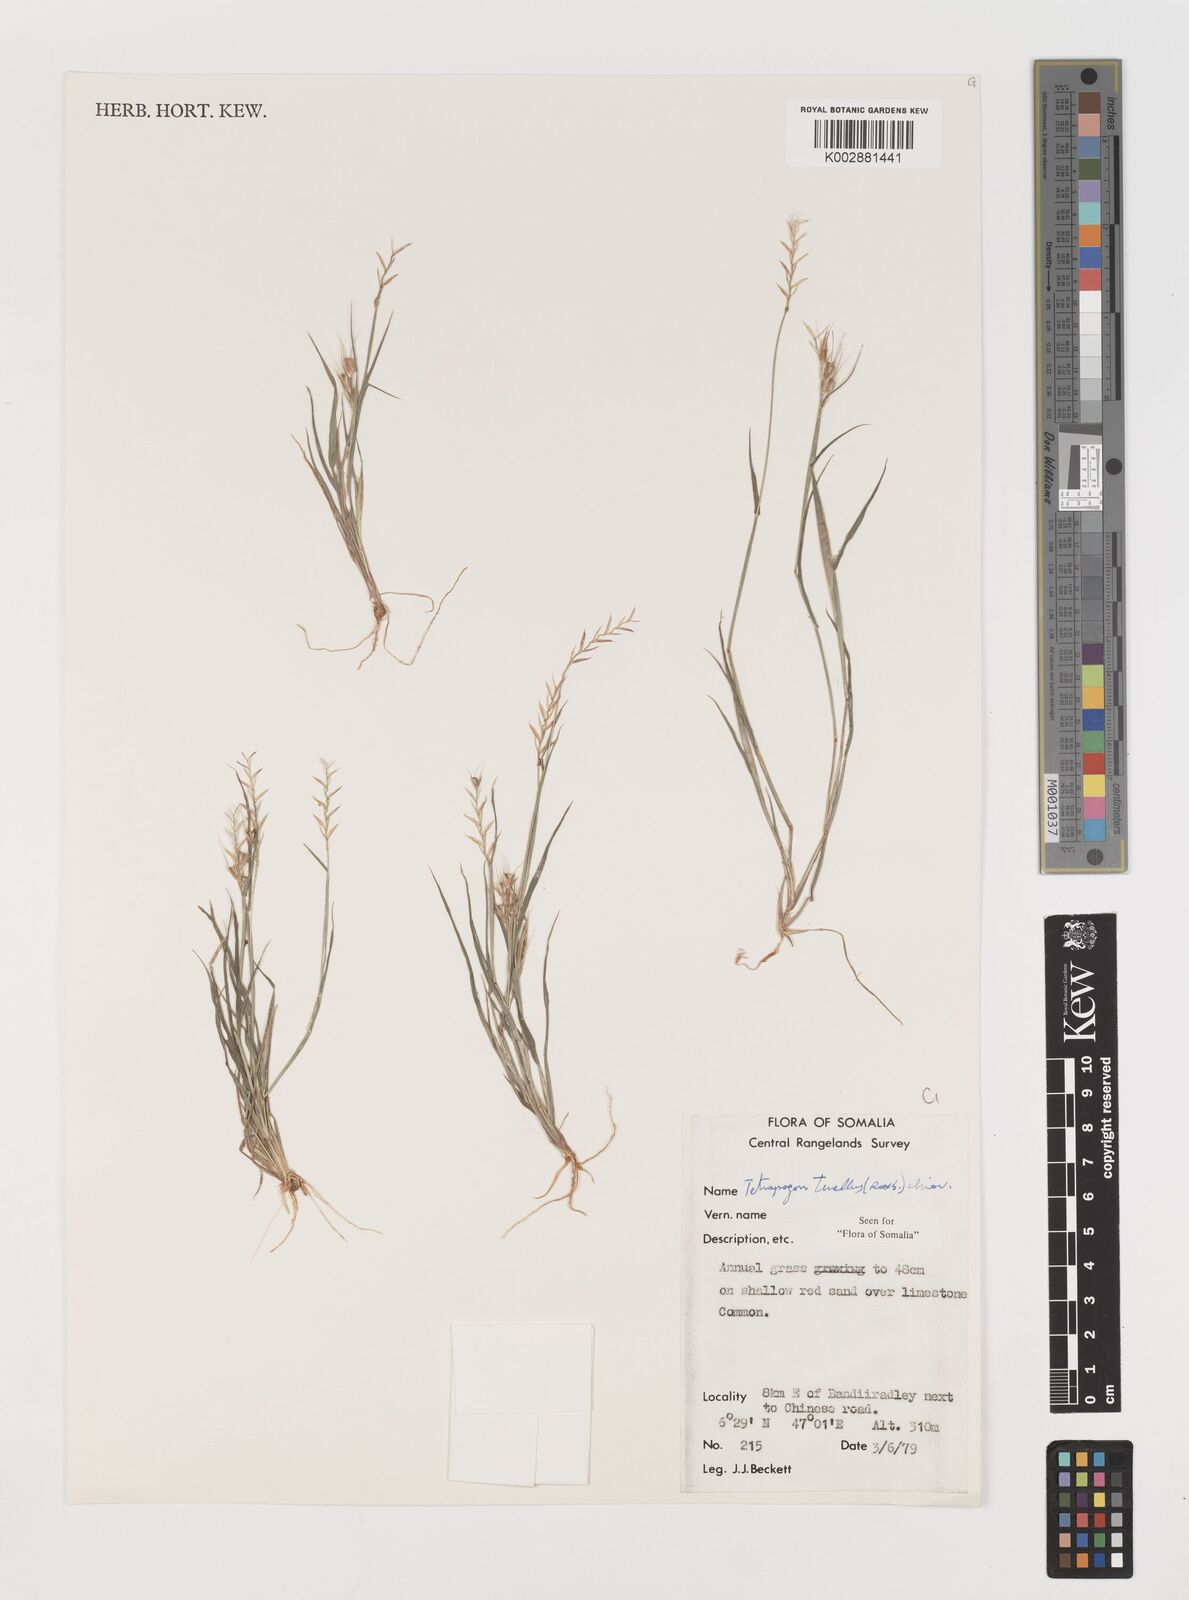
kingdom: Plantae
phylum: Tracheophyta
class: Liliopsida
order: Poales
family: Poaceae
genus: Tetrapogon
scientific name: Tetrapogon tenellus
